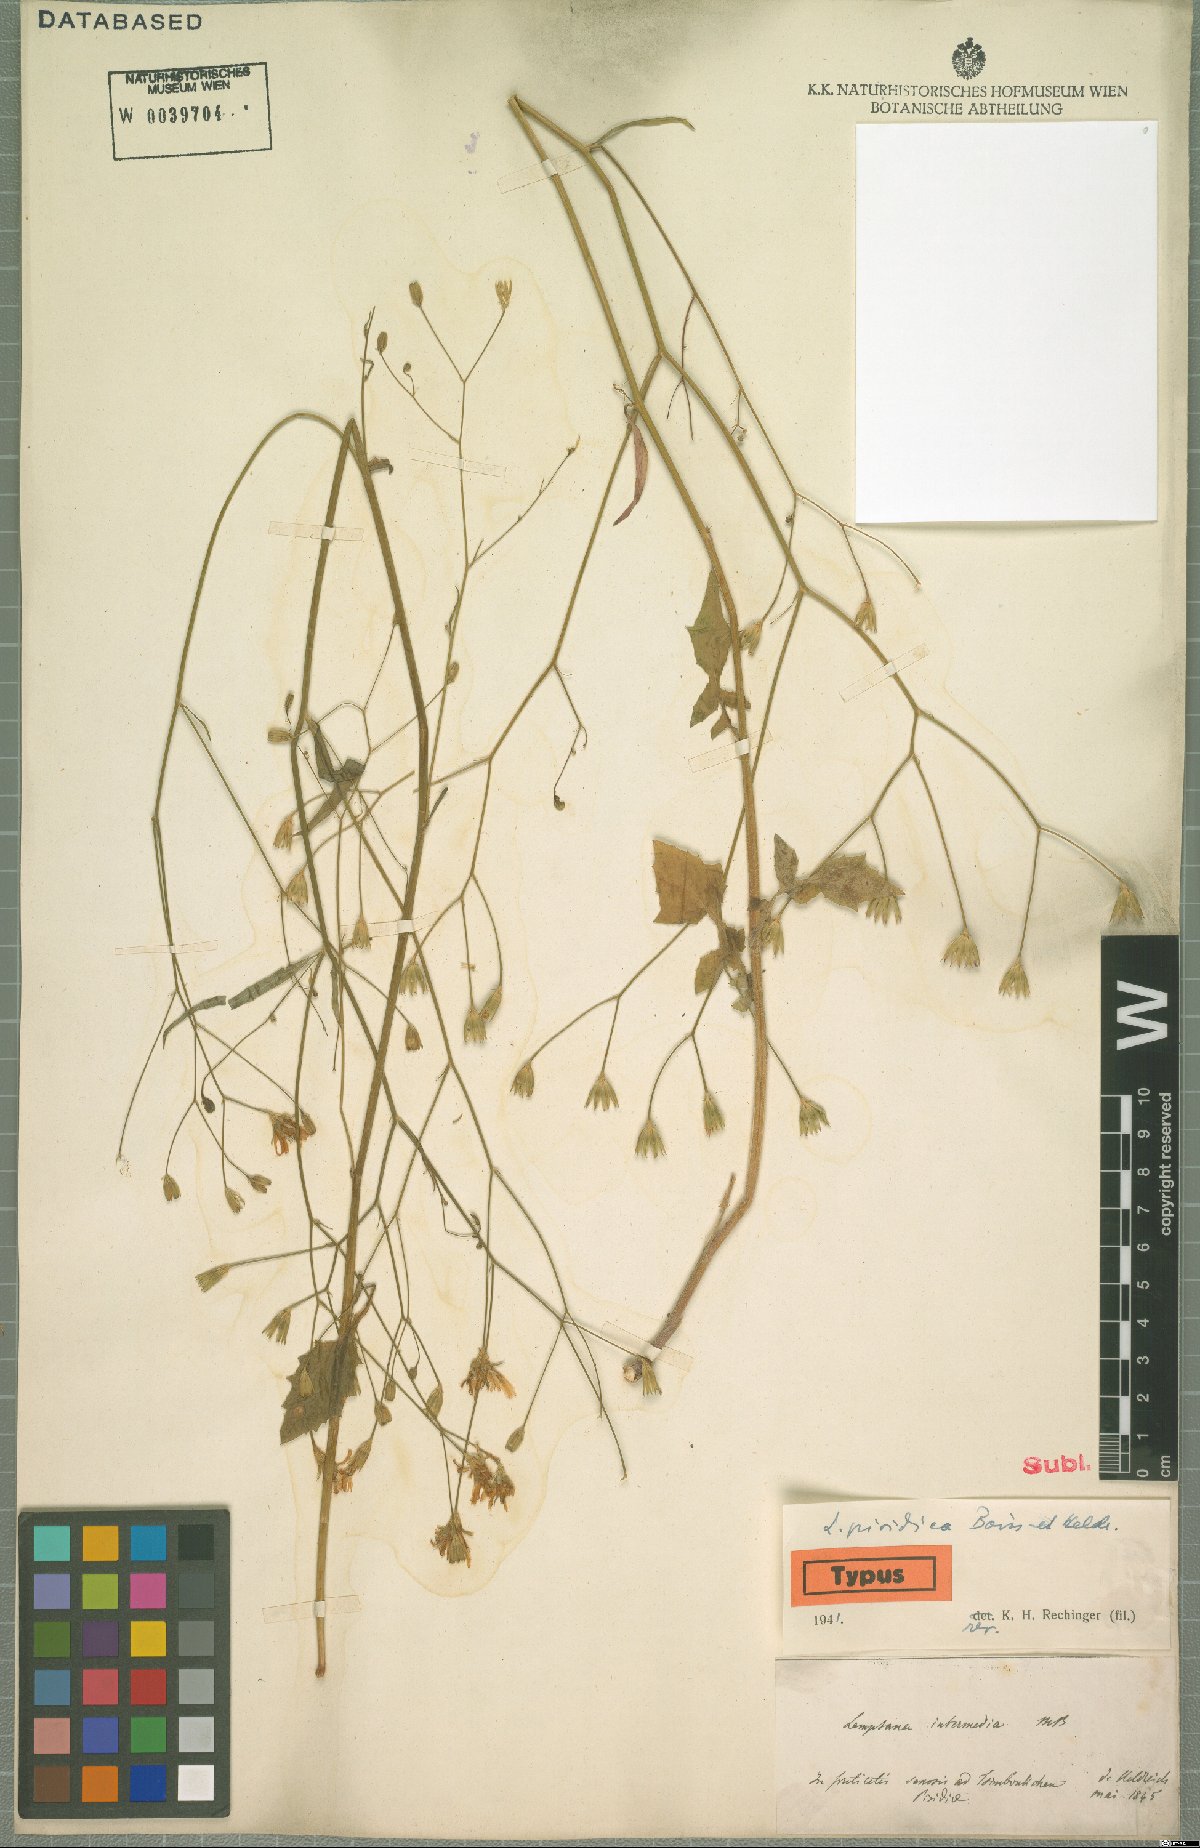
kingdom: Plantae
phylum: Tracheophyta
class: Magnoliopsida
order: Asterales
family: Asteraceae
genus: Lapsana
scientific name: Lapsana communis
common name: Nipplewort
